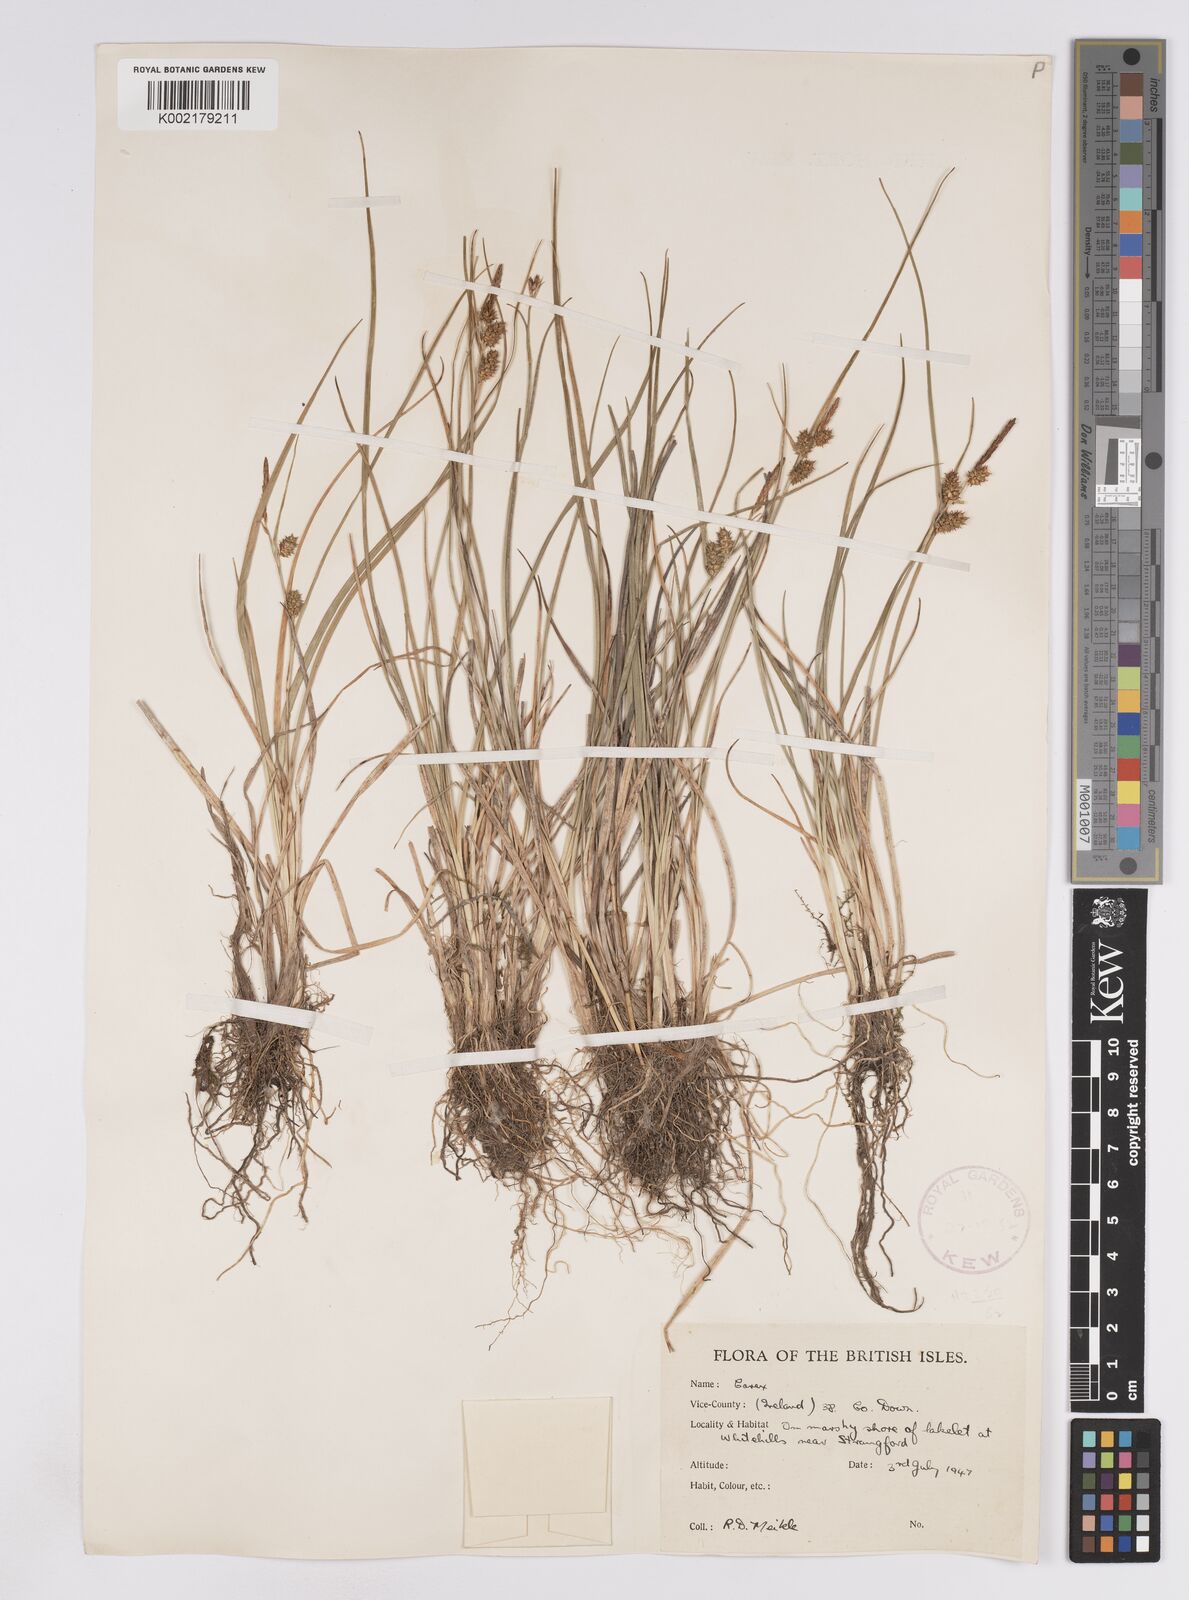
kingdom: Plantae
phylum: Tracheophyta
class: Liliopsida
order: Poales
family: Cyperaceae
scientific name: Cyperaceae
